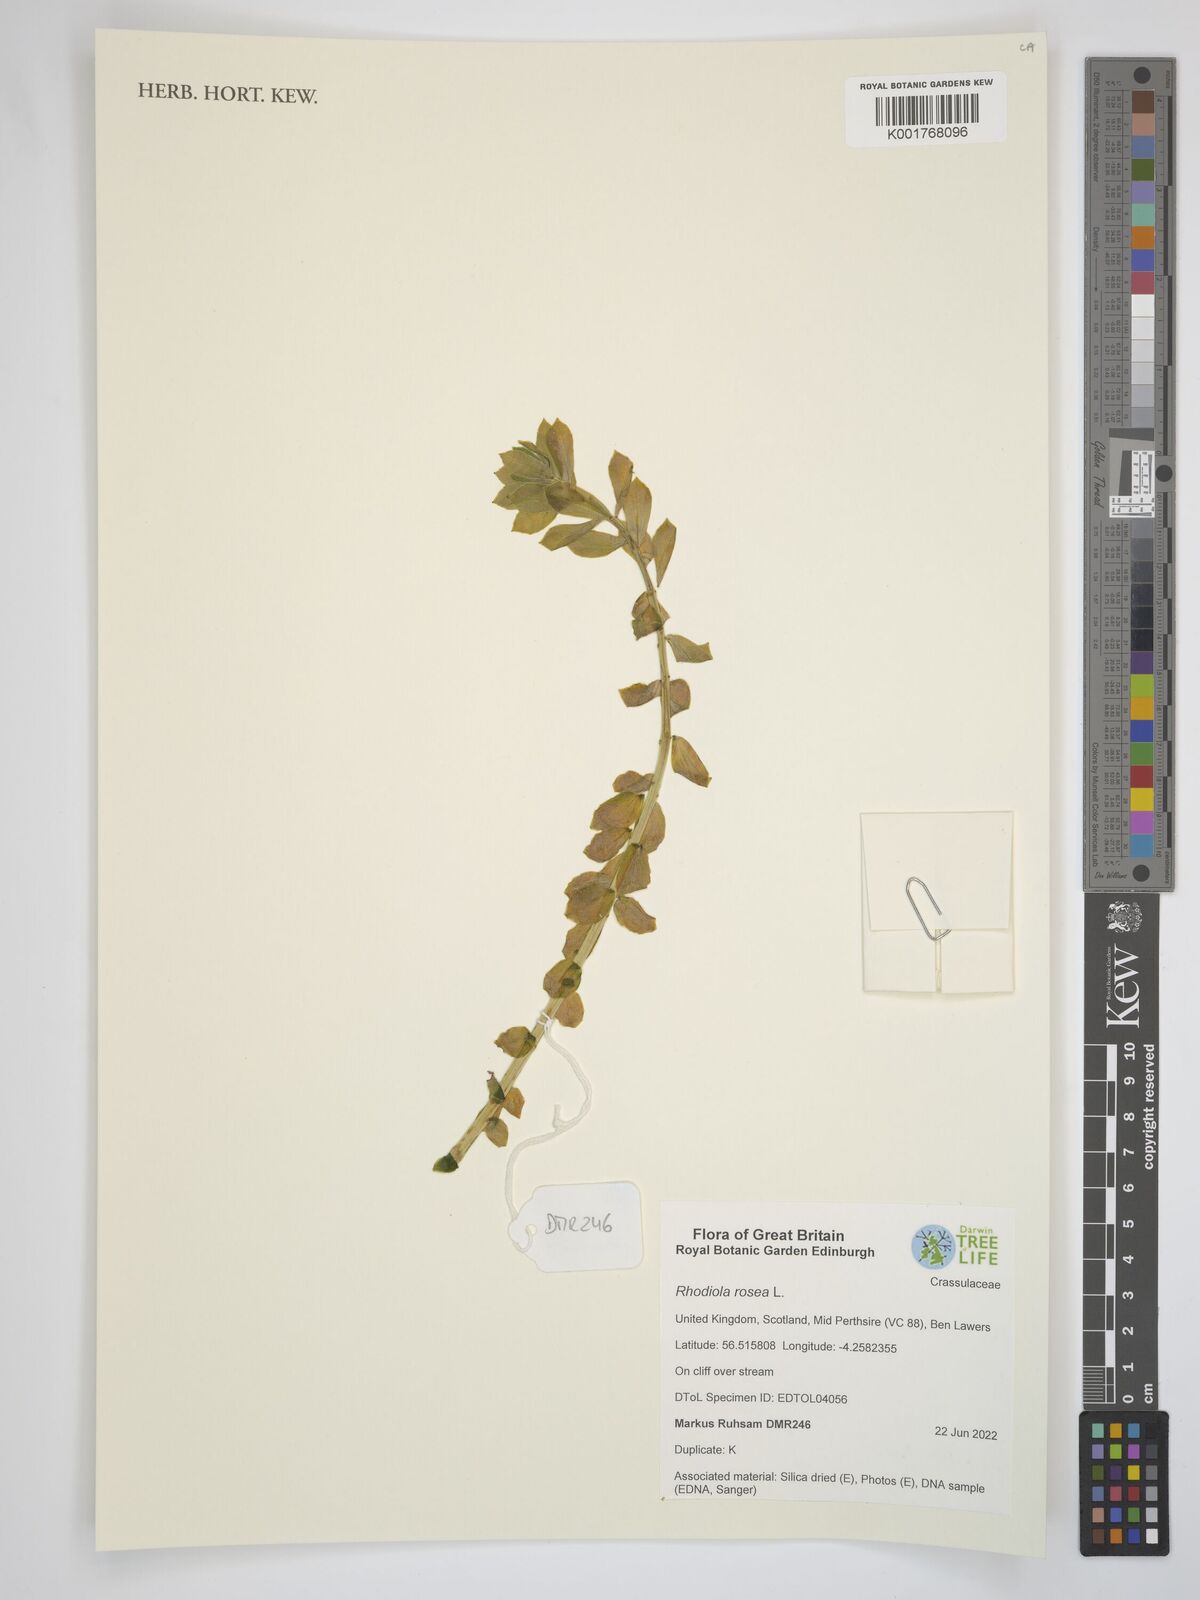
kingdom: Plantae
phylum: Tracheophyta
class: Magnoliopsida
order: Saxifragales
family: Crassulaceae
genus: Rhodiola
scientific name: Rhodiola rosea
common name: Roseroot
